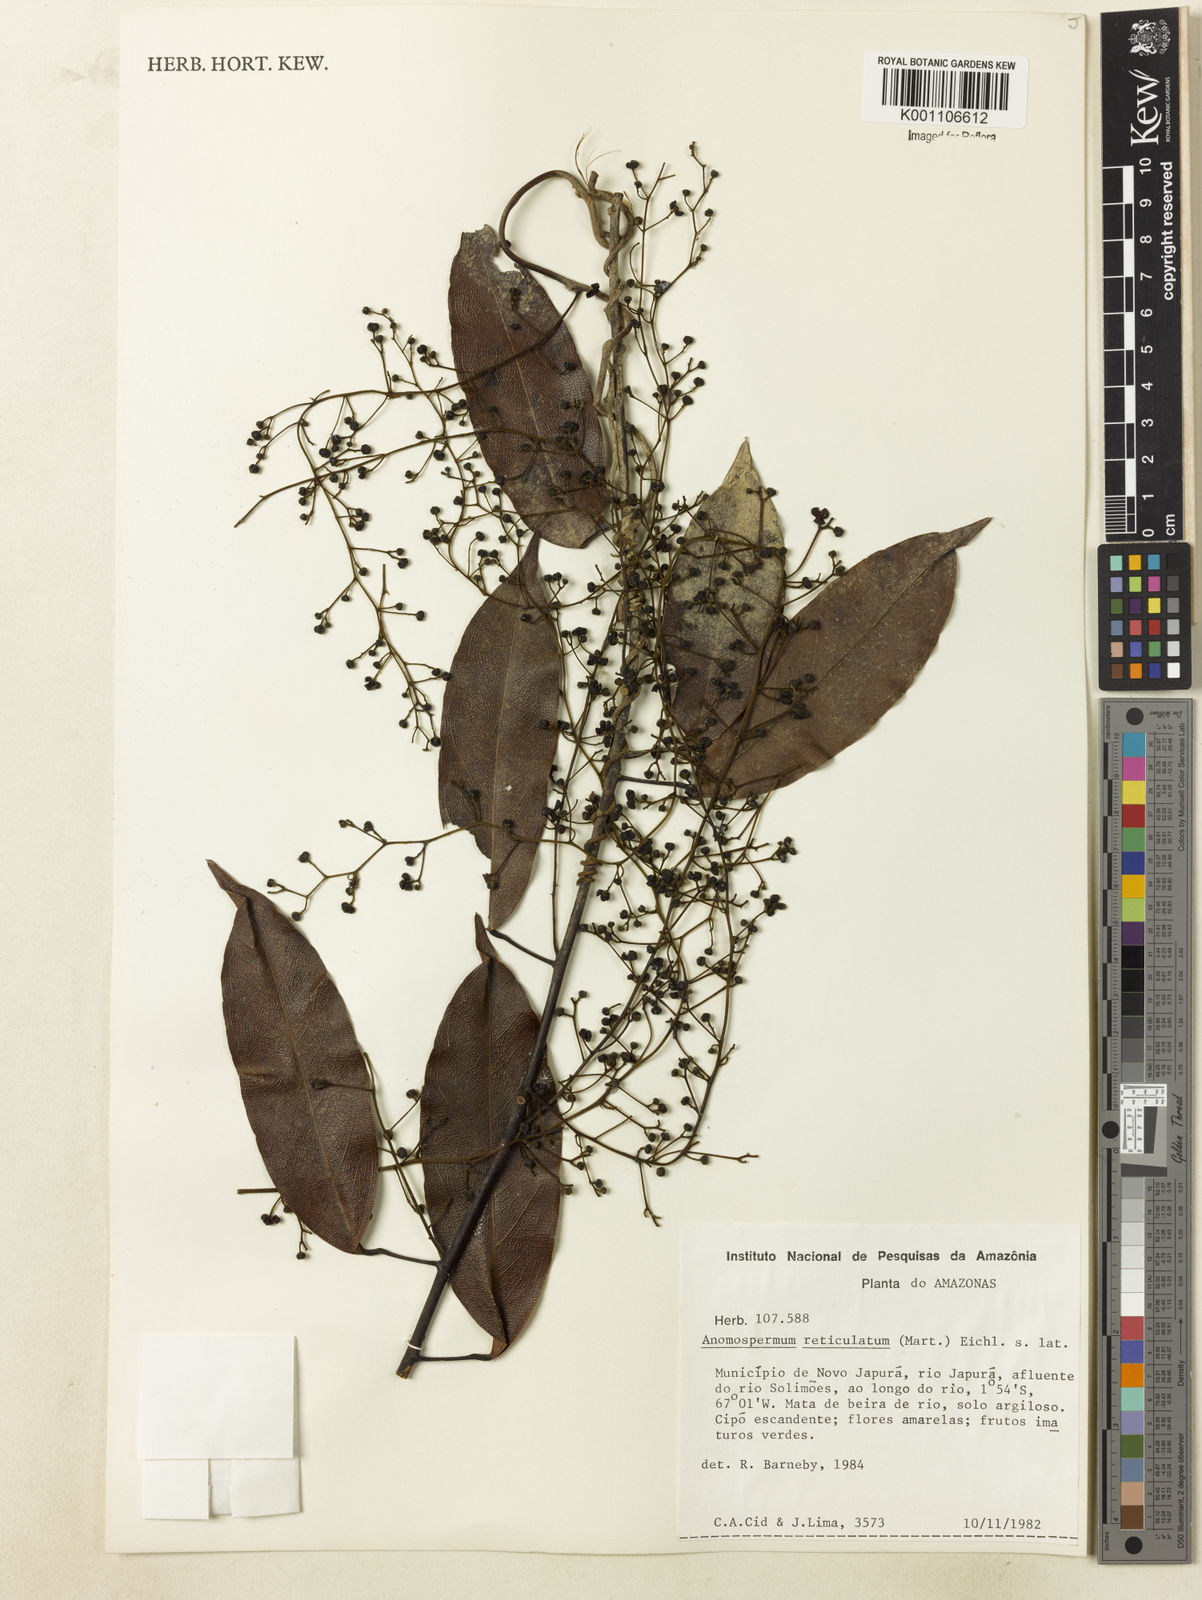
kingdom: Plantae
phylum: Tracheophyta
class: Magnoliopsida
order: Ranunculales
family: Menispermaceae
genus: Anomospermum
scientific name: Anomospermum reticulatum
